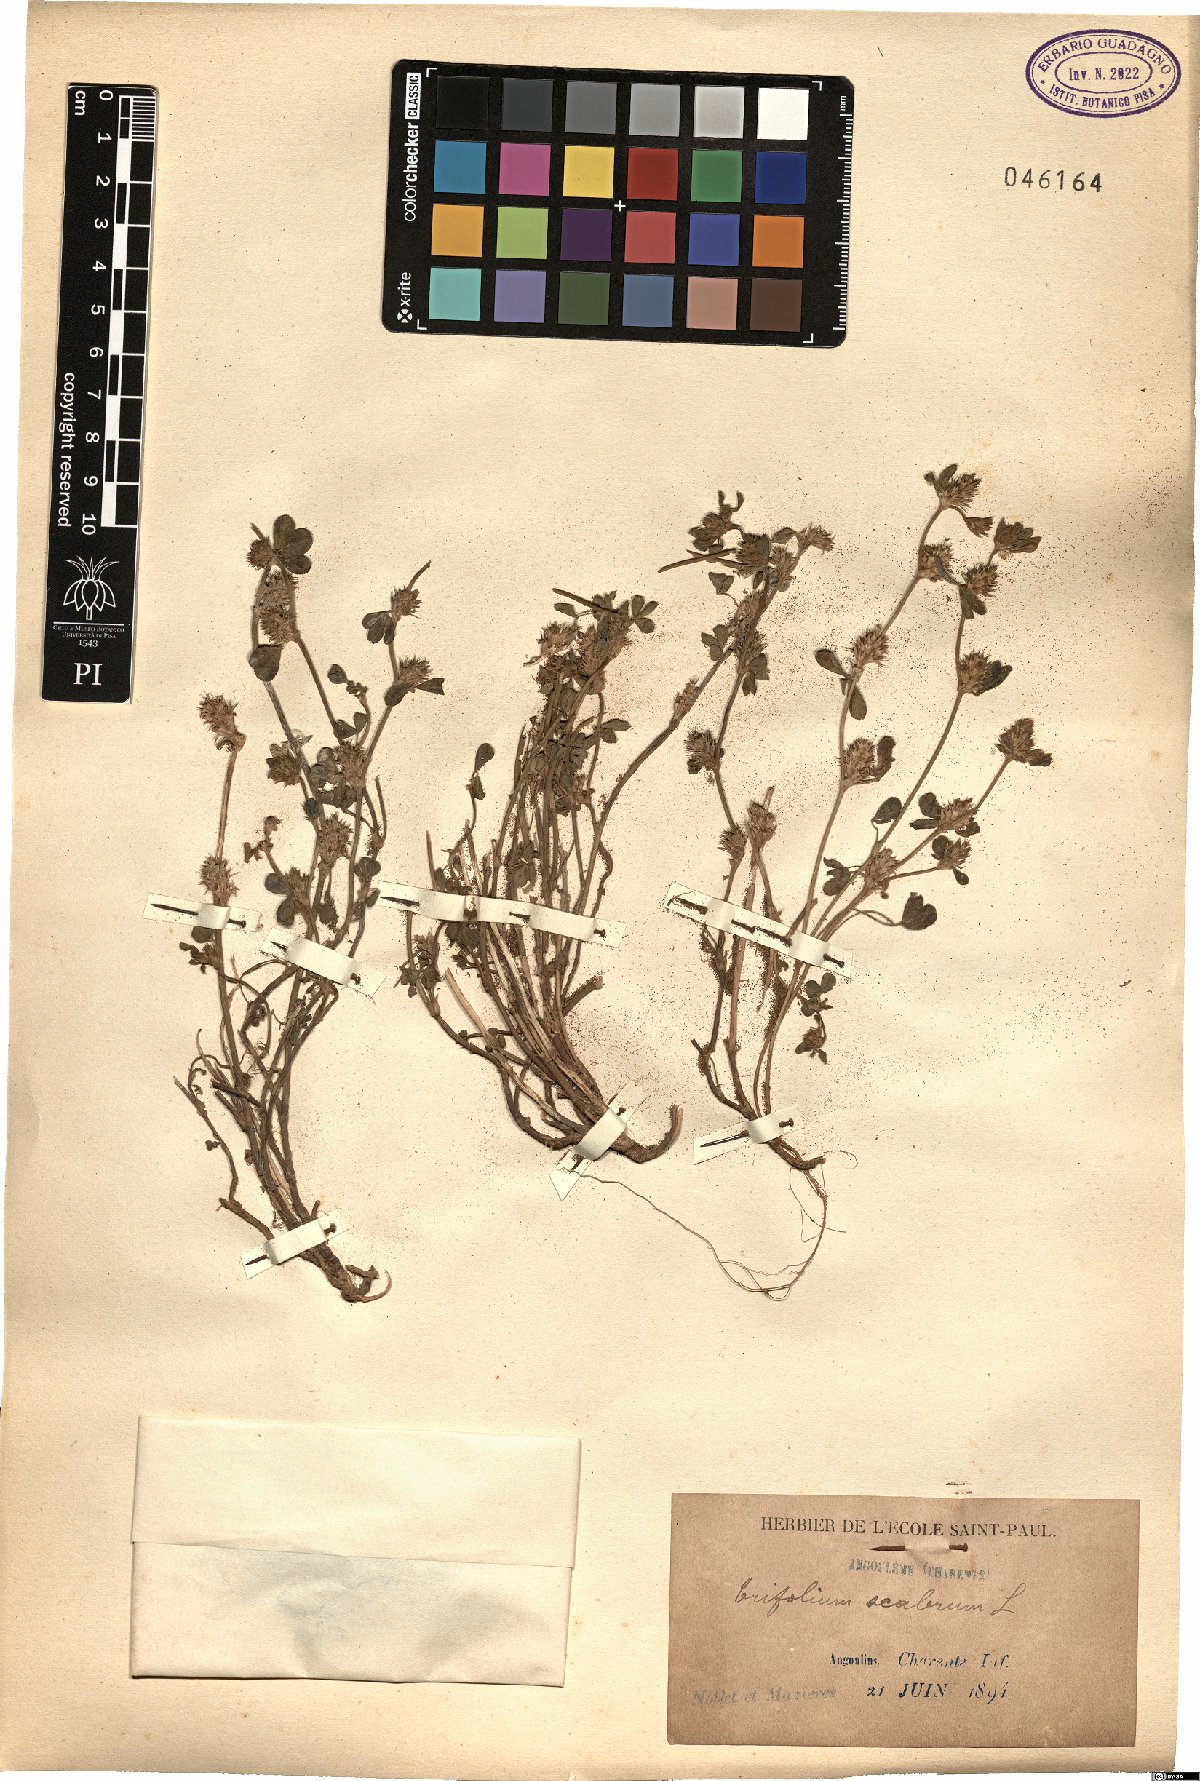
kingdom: Plantae
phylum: Tracheophyta
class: Magnoliopsida
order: Fabales
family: Fabaceae
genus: Trifolium
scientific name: Trifolium scabrum
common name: Rough clover
